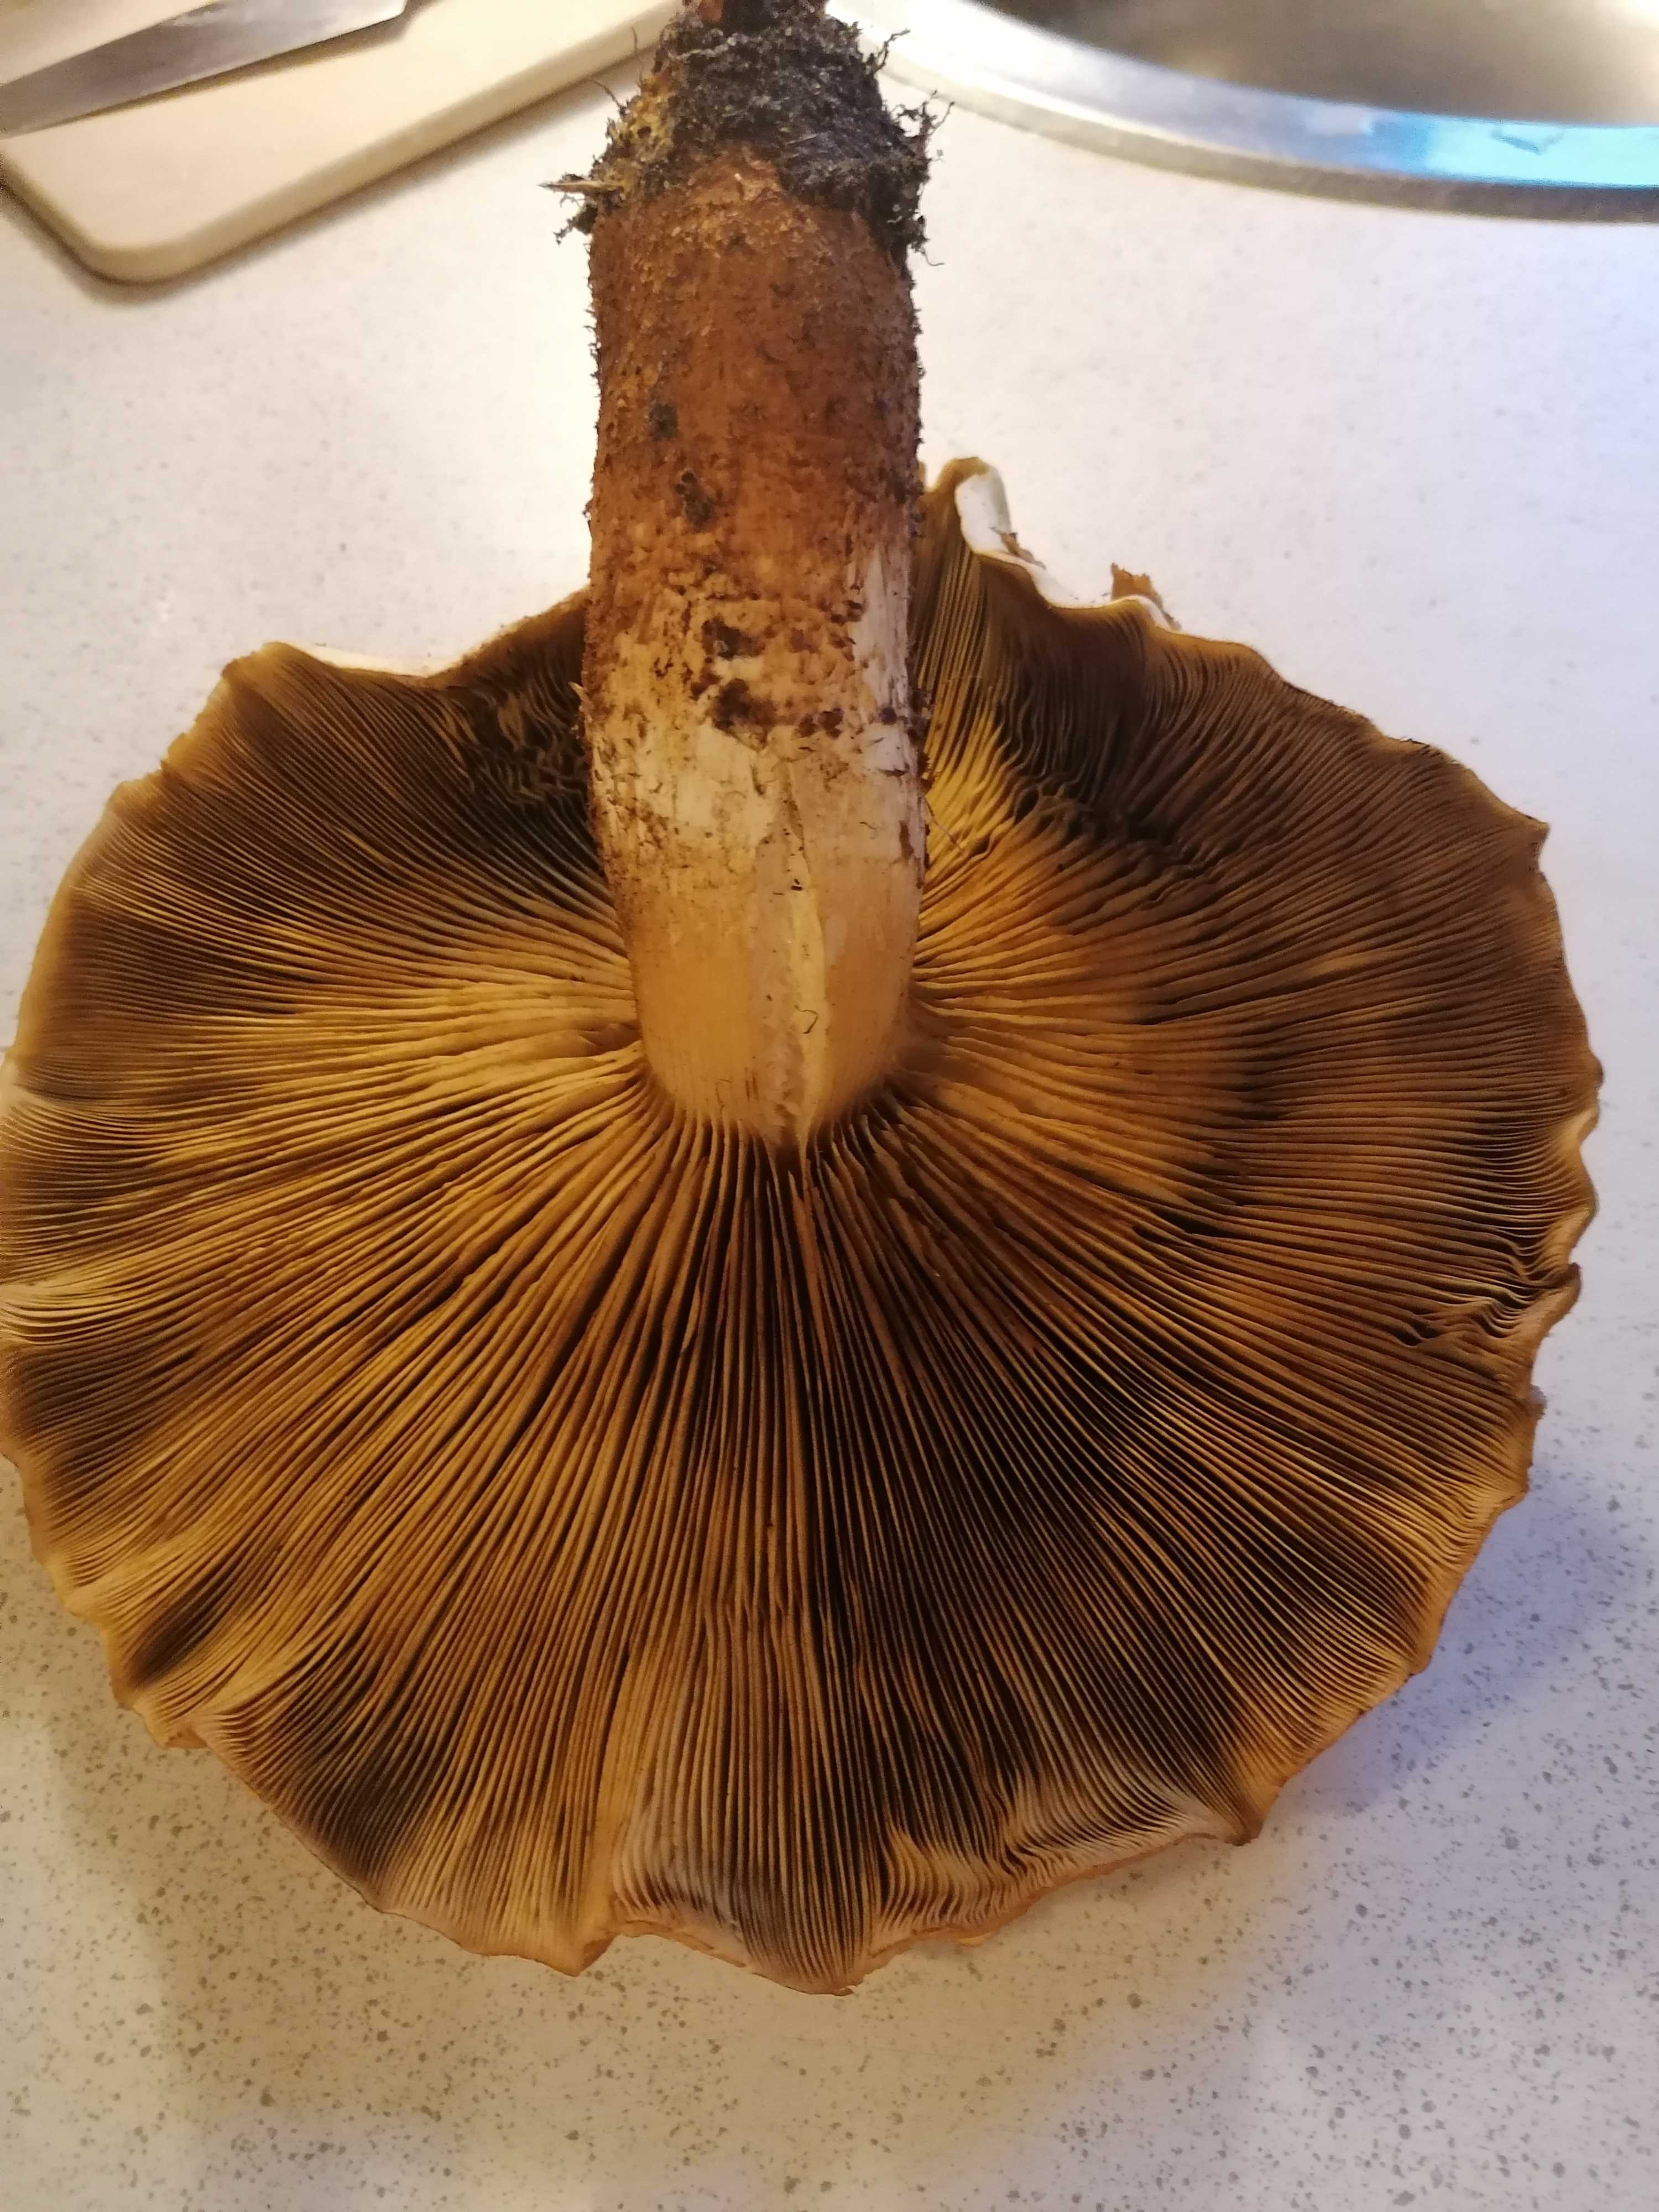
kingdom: Fungi
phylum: Basidiomycota
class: Agaricomycetes
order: Agaricales
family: Strophariaceae
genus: Pholiota
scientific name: Pholiota squarrosa
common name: krumskællet skælhat
